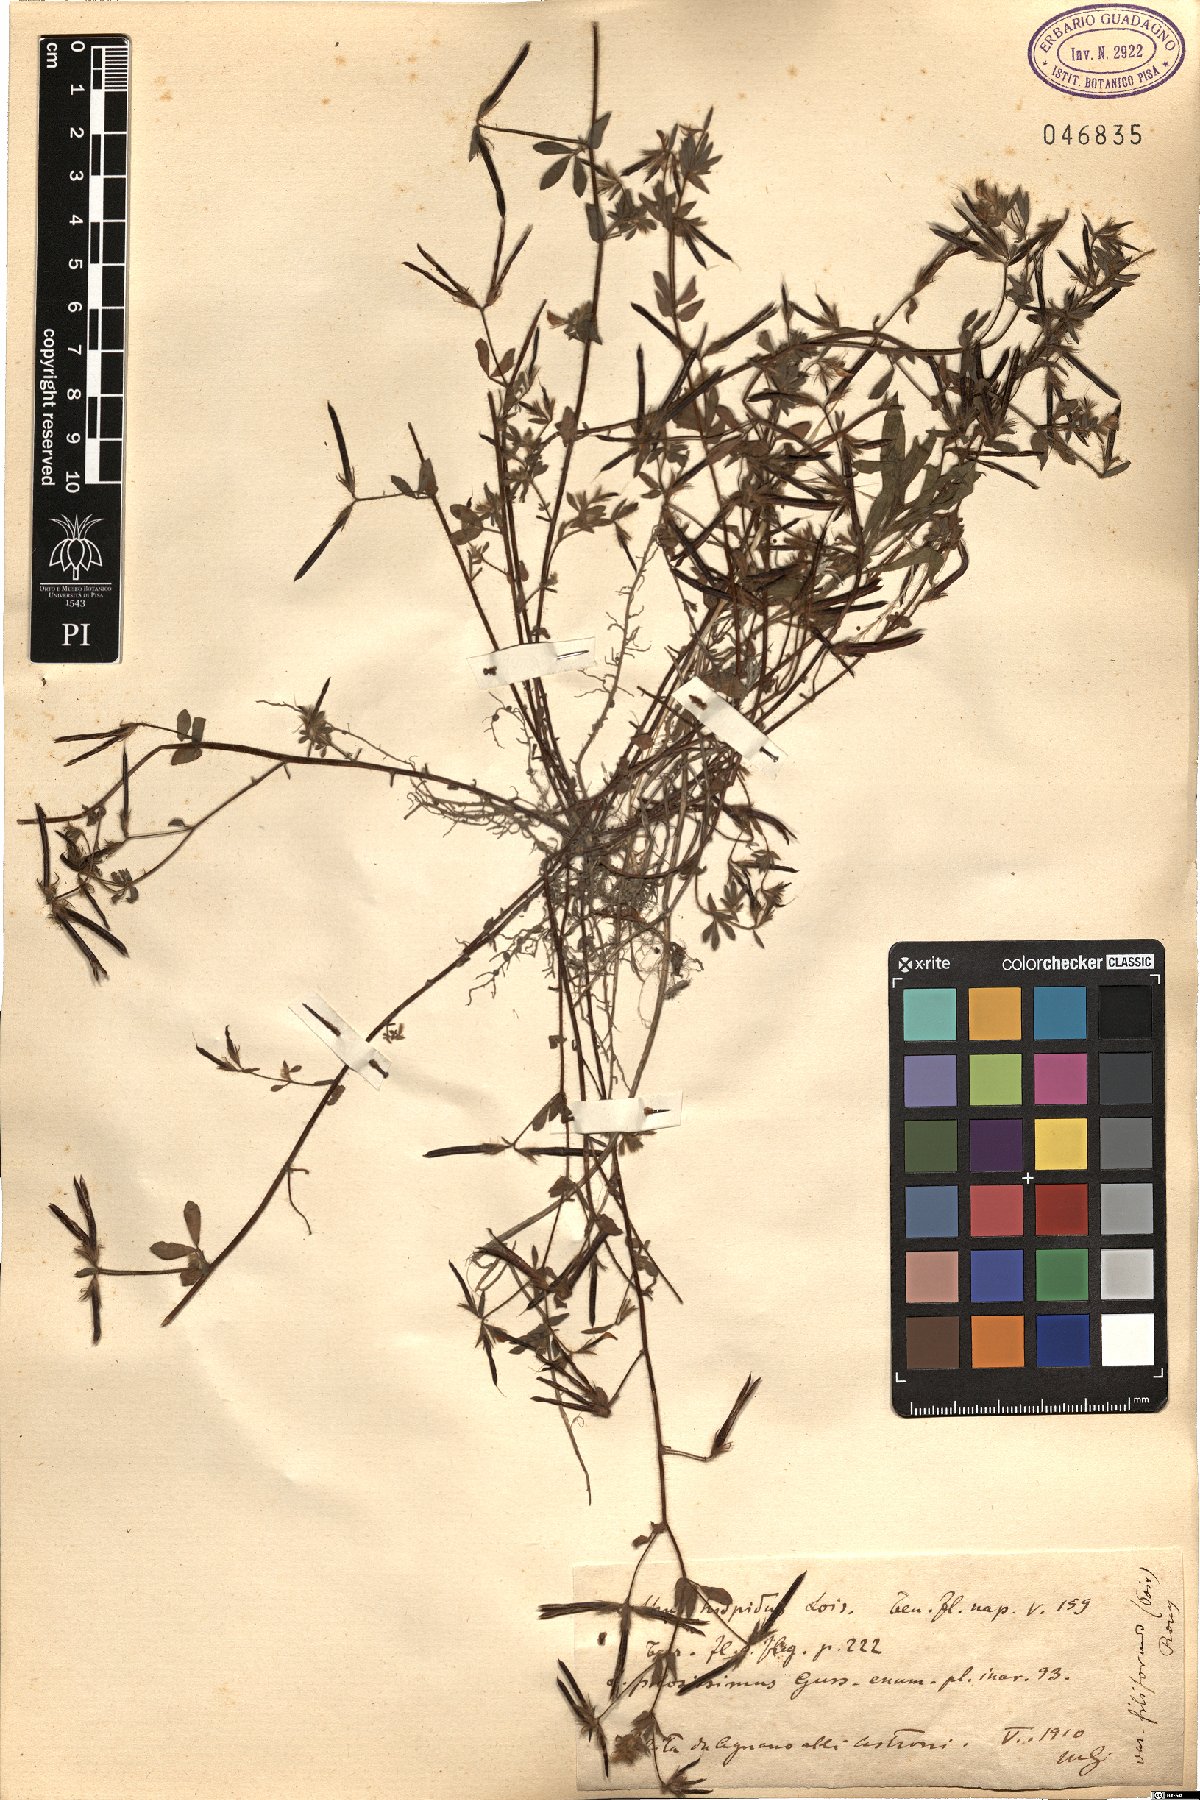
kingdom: Plantae
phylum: Tracheophyta
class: Magnoliopsida
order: Fabales
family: Fabaceae
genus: Lotus
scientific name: Lotus parviflorus
